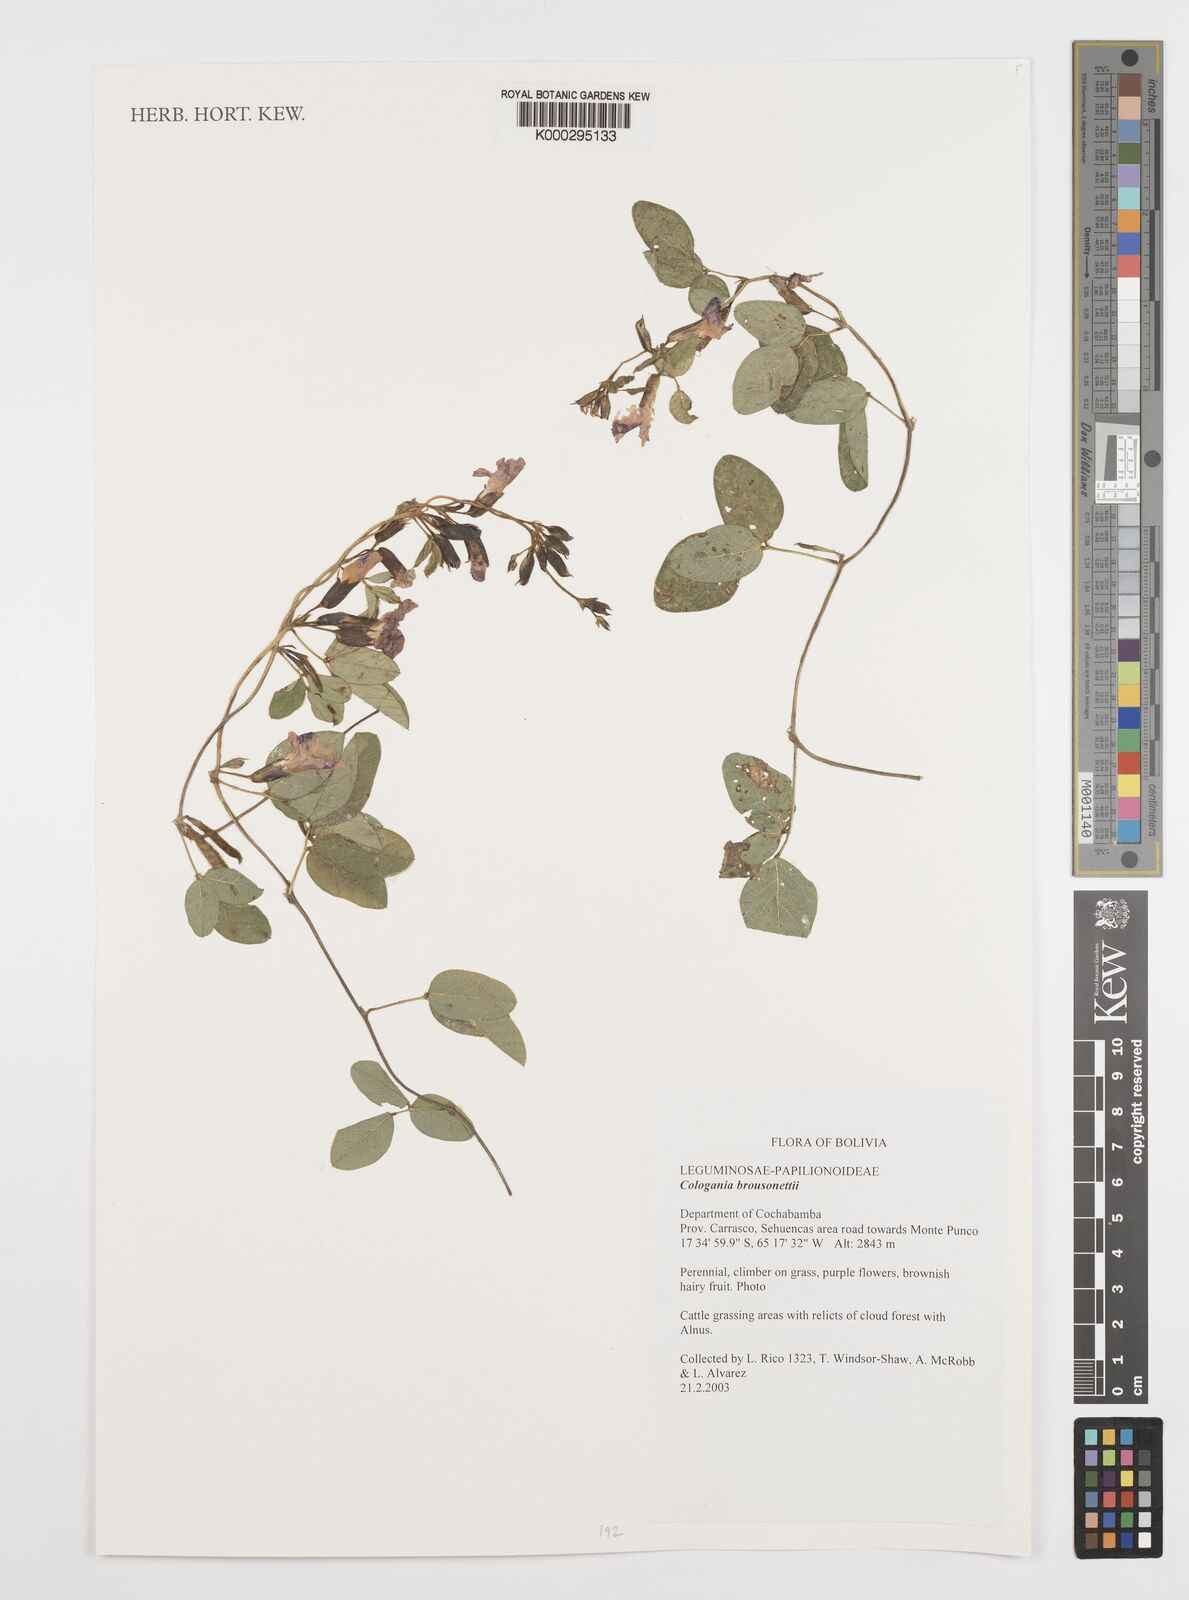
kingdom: Plantae
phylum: Tracheophyta
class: Magnoliopsida
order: Fabales
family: Fabaceae
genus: Cologania
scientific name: Cologania broussonetii
